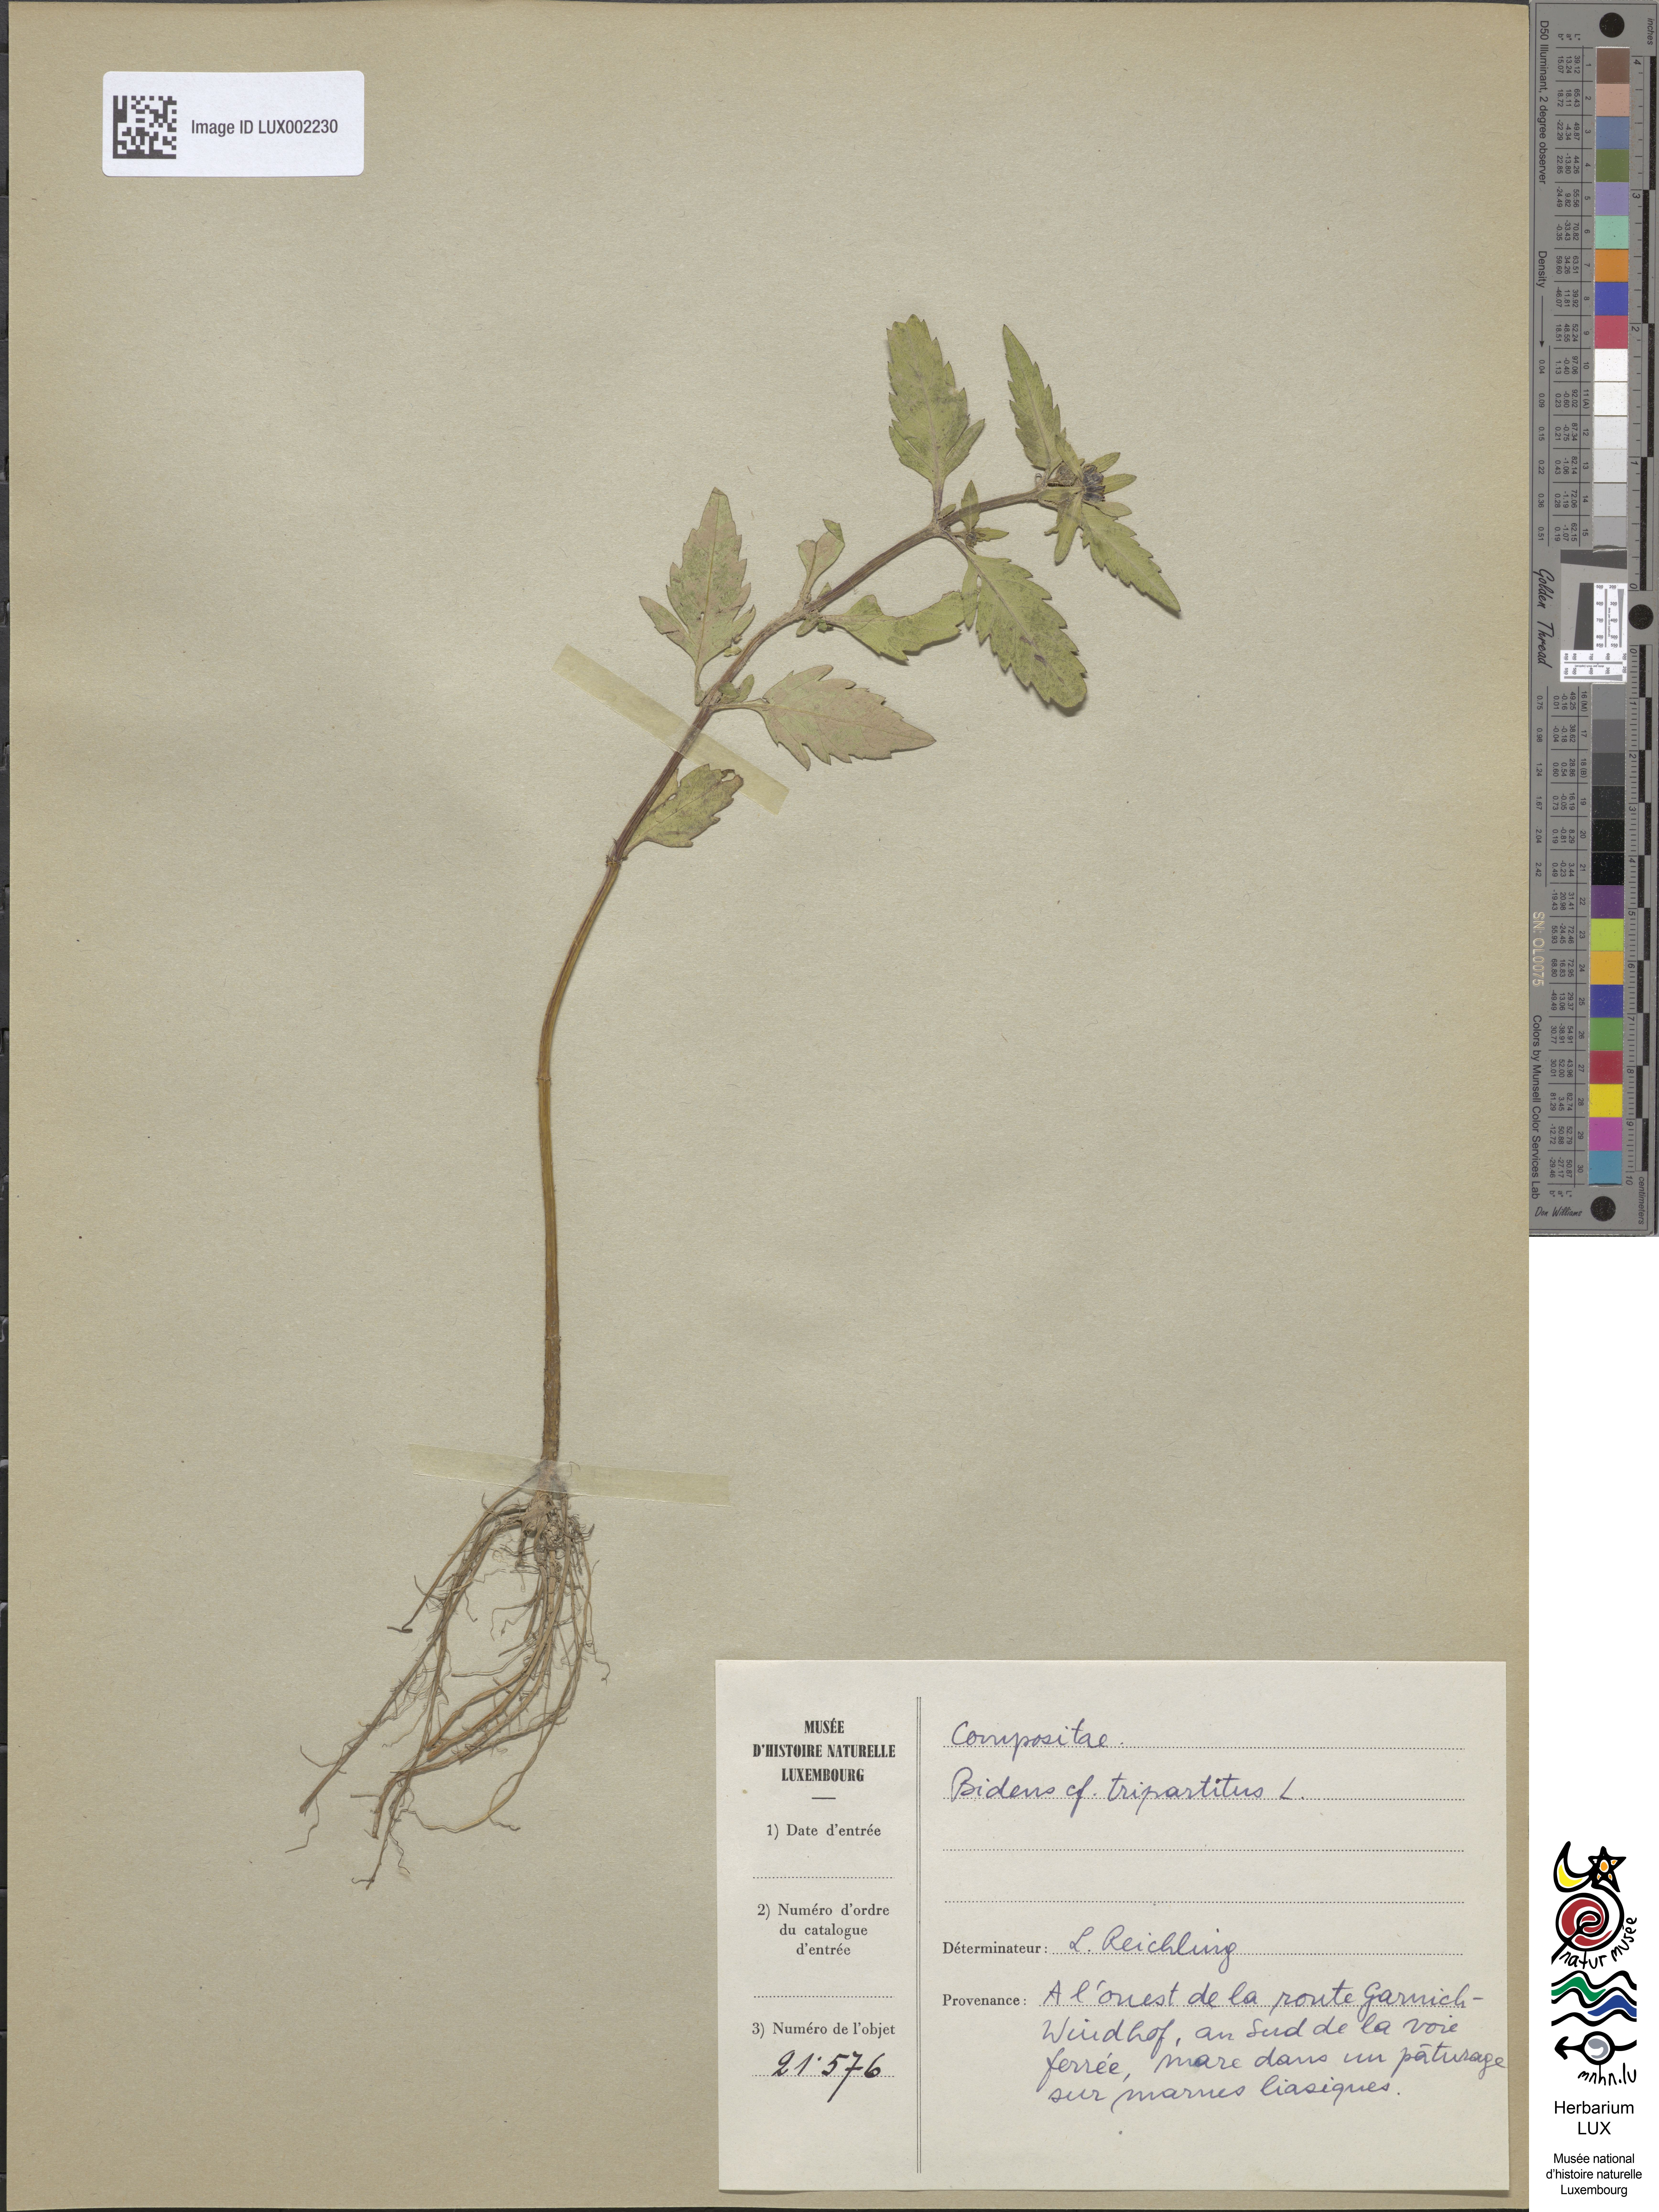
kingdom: Plantae
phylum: Tracheophyta
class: Magnoliopsida
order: Asterales
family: Asteraceae
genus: Bidens
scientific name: Bidens tripartita
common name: Trifid bur-marigold
